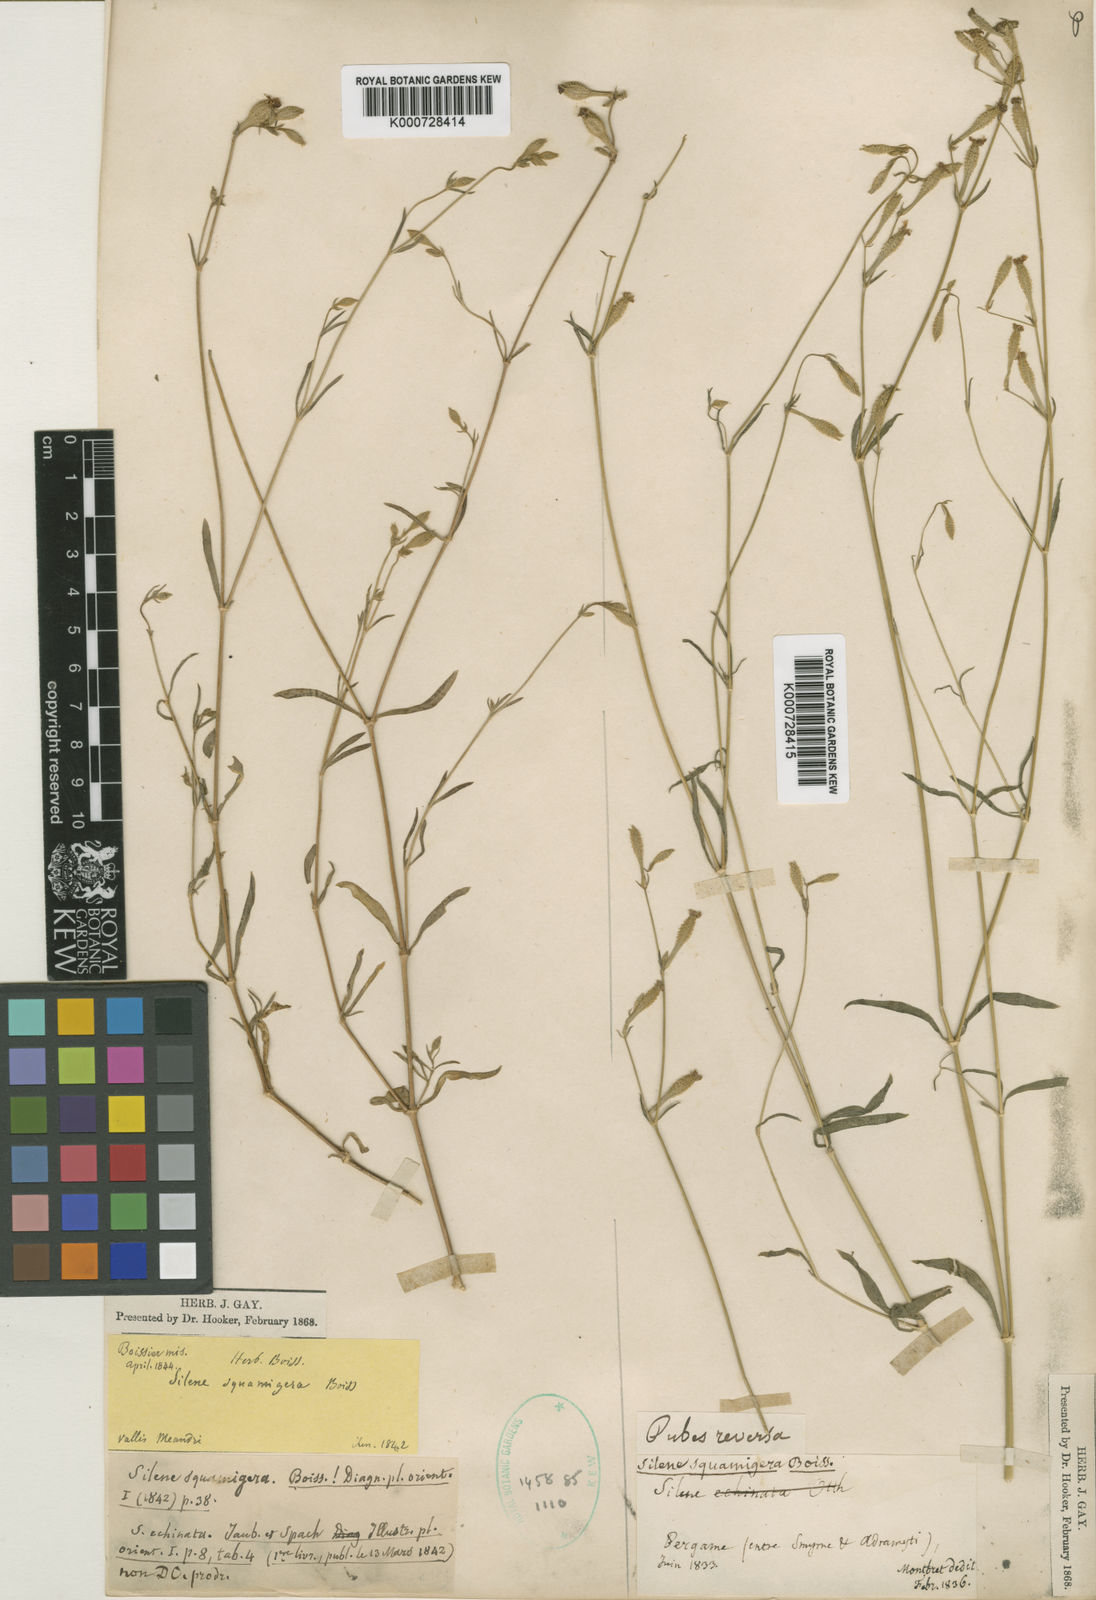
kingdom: Plantae
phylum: Tracheophyta
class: Magnoliopsida
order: Caryophyllales
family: Caryophyllaceae
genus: Silene
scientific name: Silene squamigera
